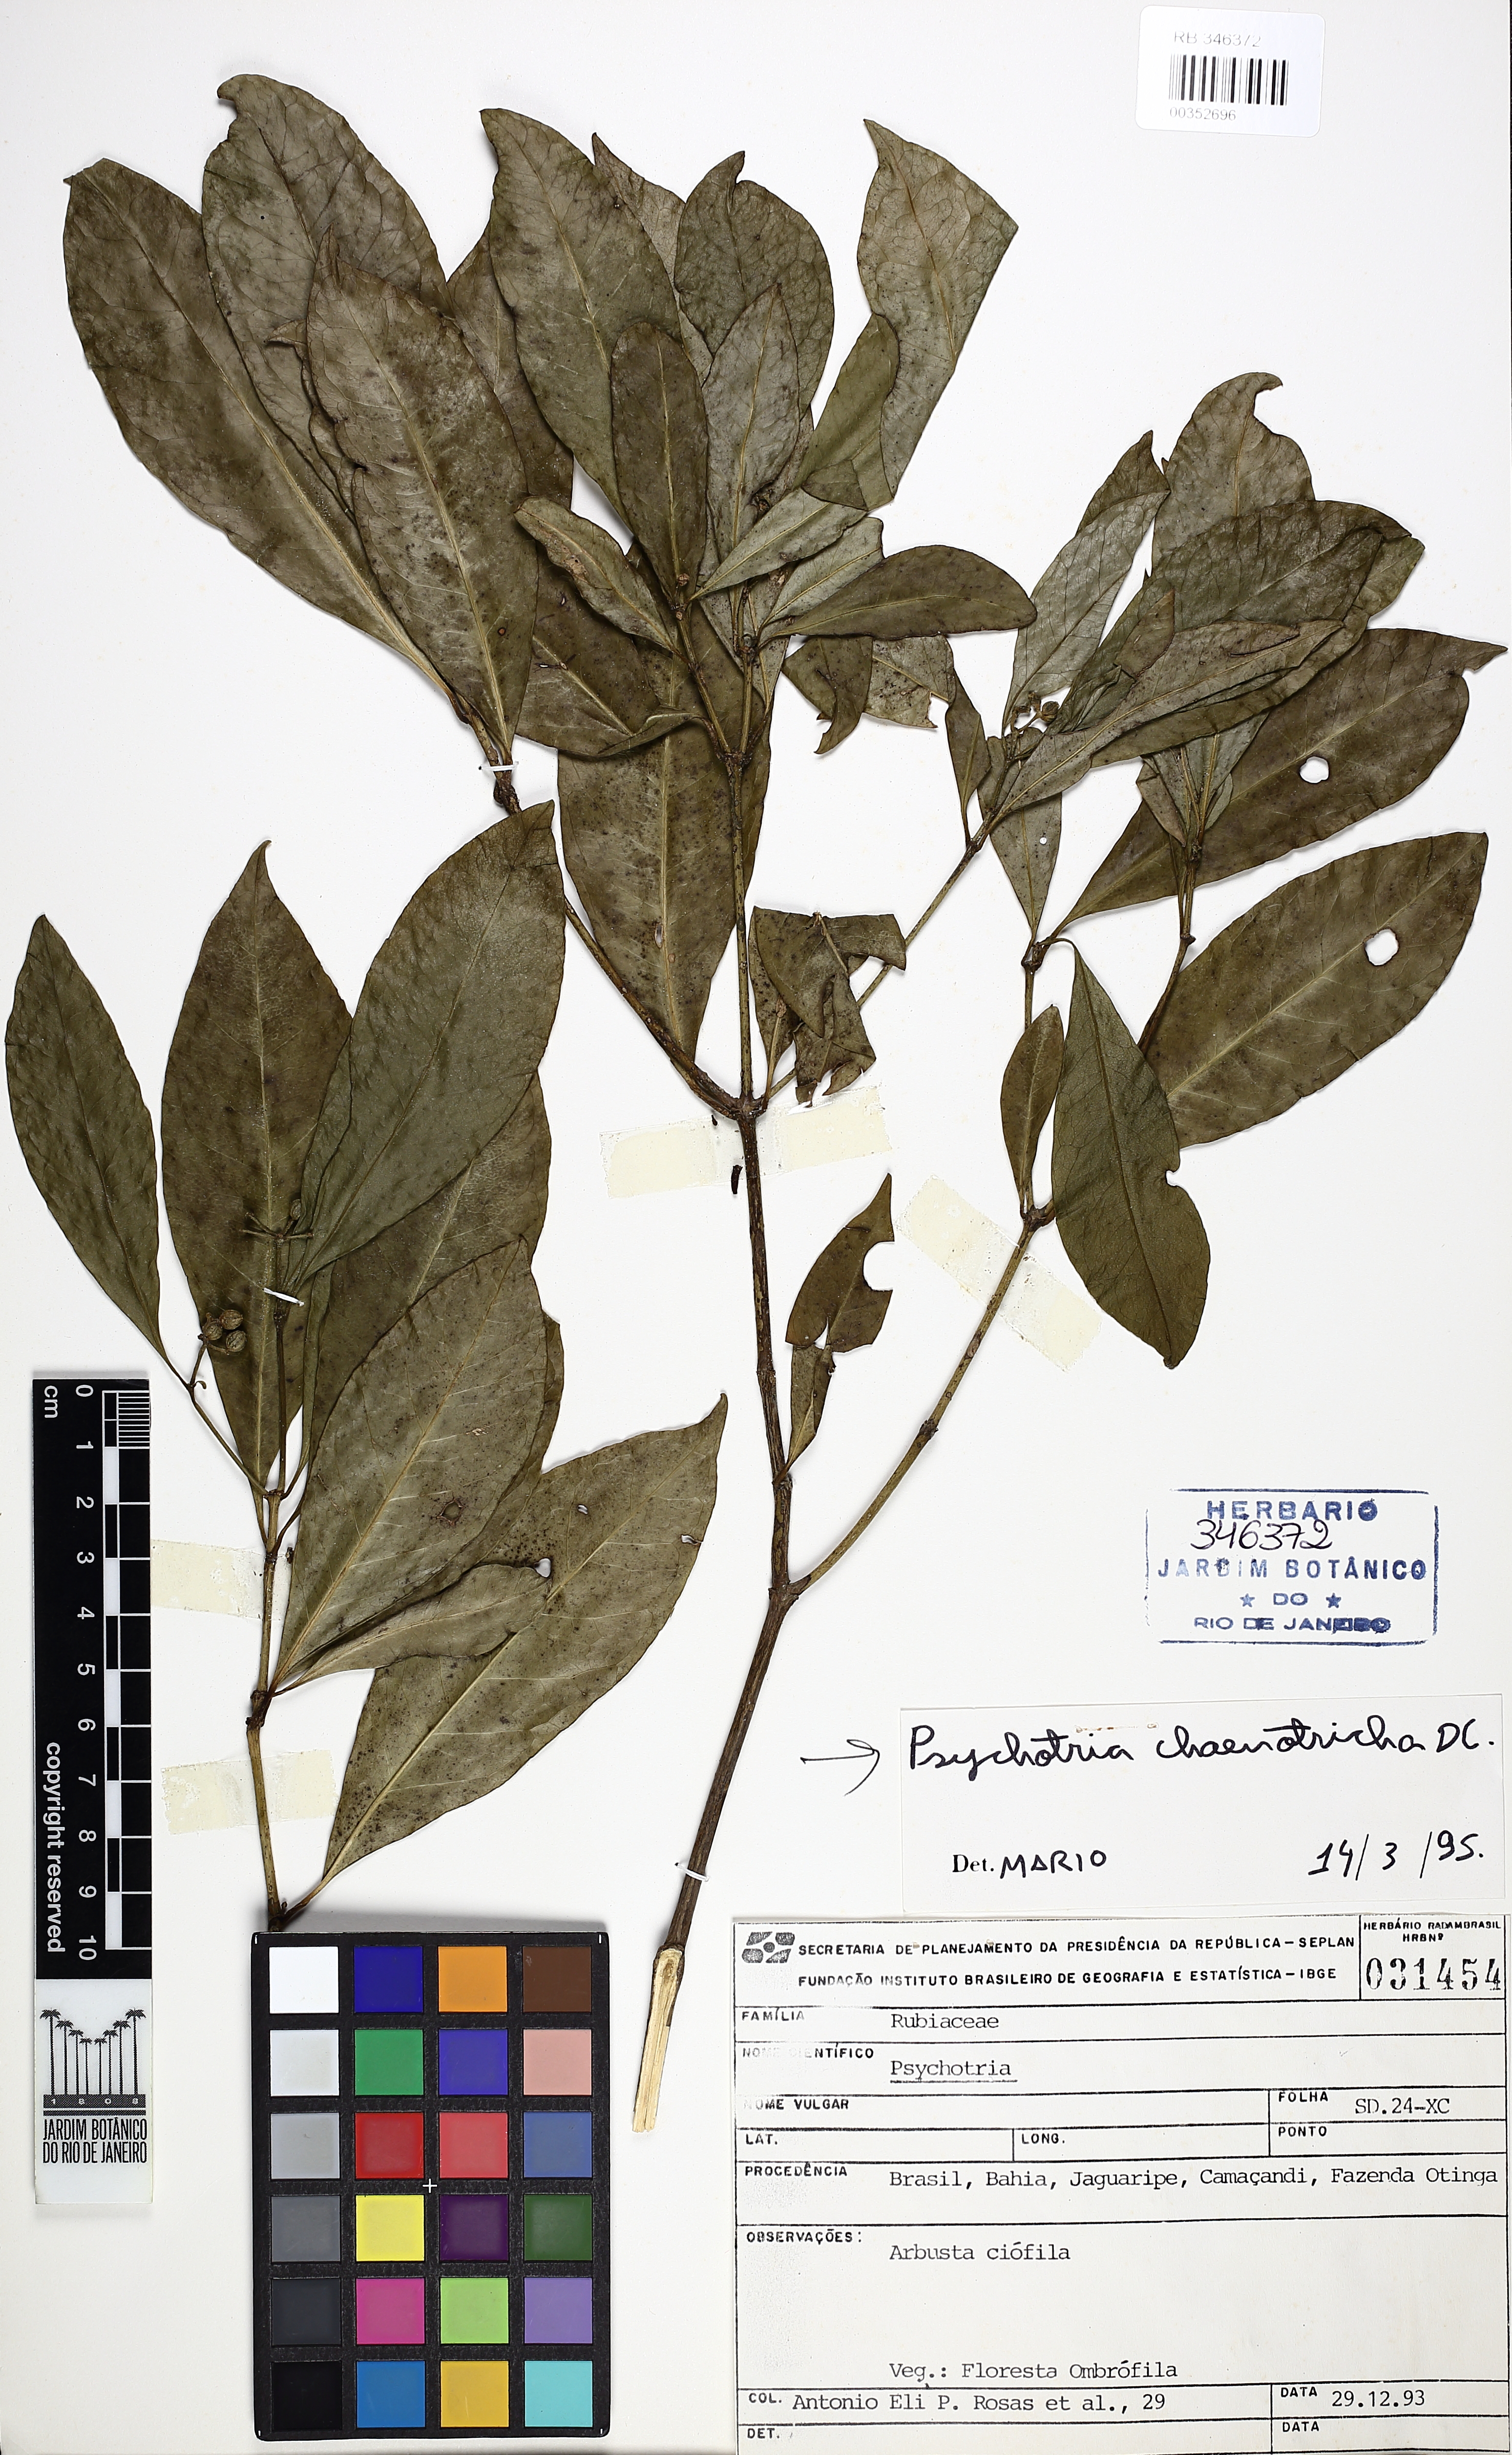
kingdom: Plantae
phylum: Tracheophyta
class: Magnoliopsida
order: Gentianales
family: Rubiaceae
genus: Eumachia
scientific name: Eumachia chaenotricha
